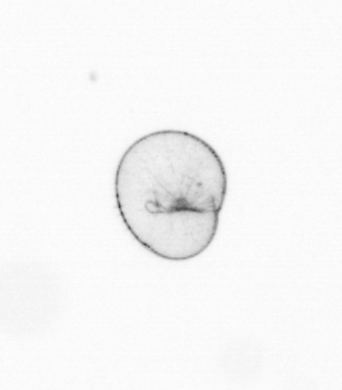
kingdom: Chromista
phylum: Myzozoa
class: Dinophyceae
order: Noctilucales
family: Noctilucaceae
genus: Noctiluca
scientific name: Noctiluca scintillans
